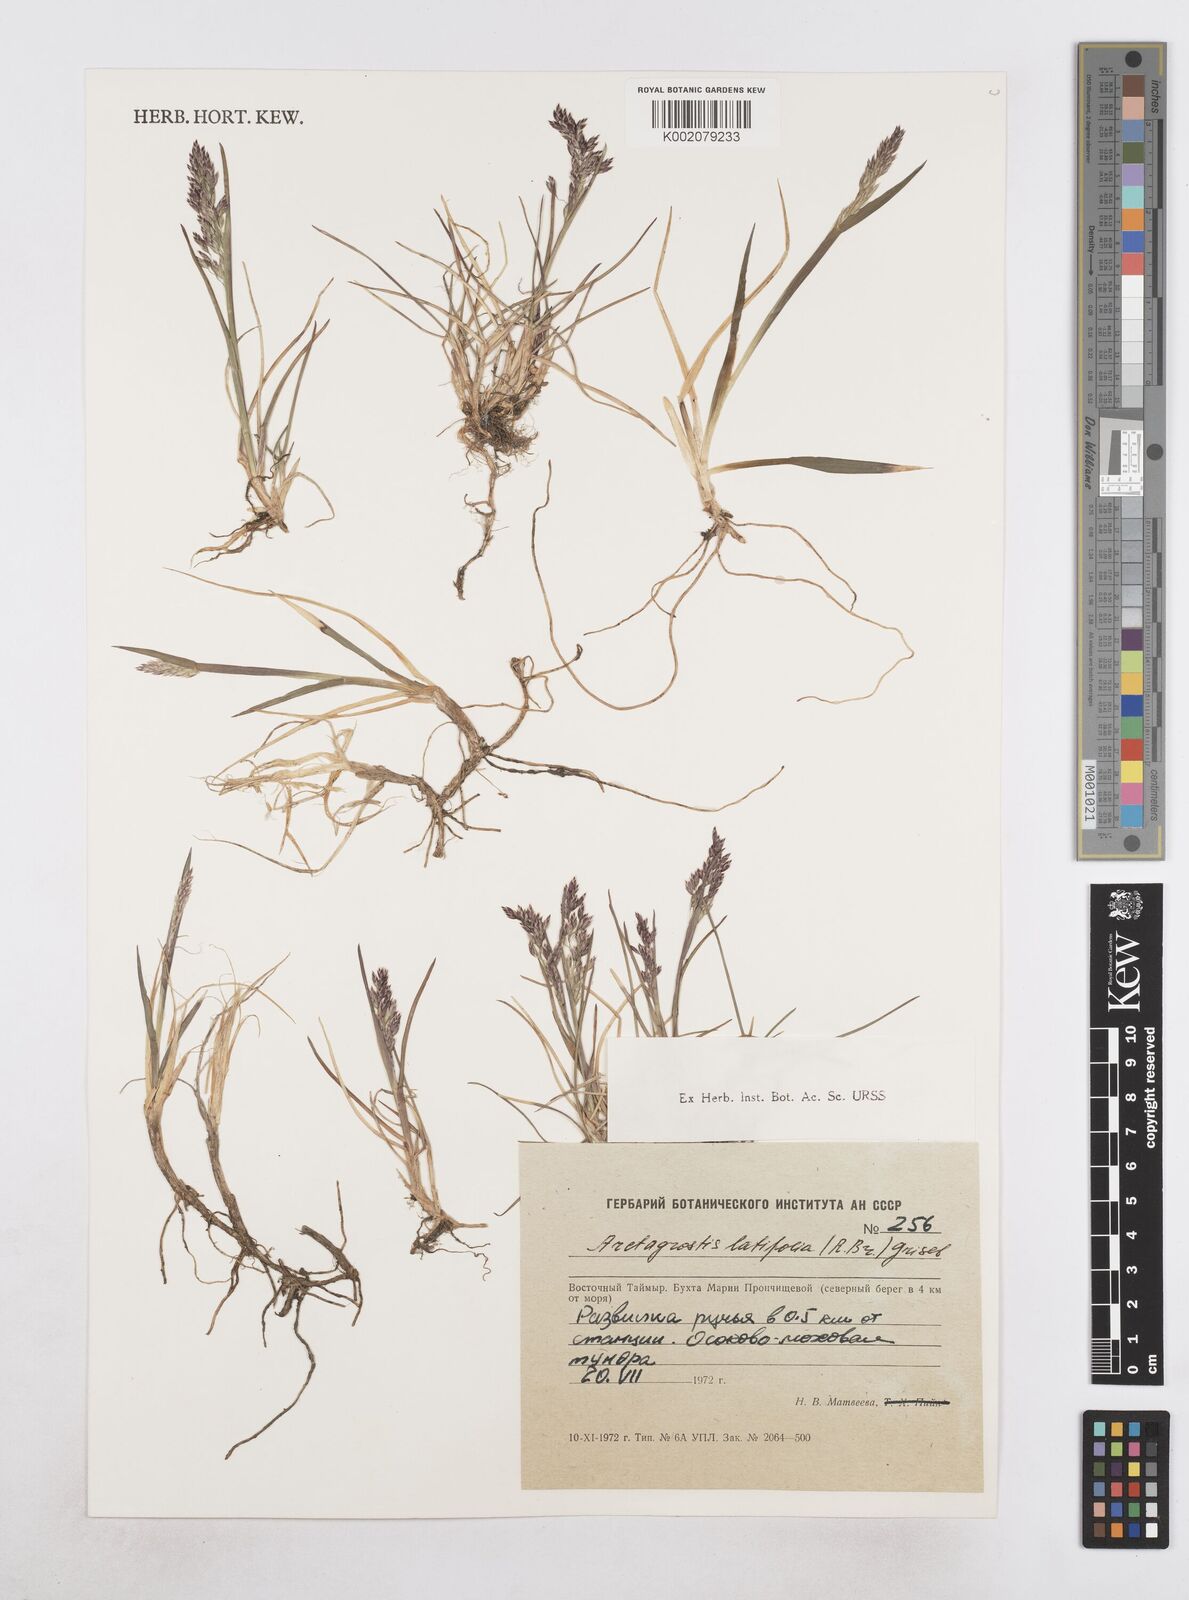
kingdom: Plantae
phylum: Tracheophyta
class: Liliopsida
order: Poales
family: Poaceae
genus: Arctagrostis
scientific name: Arctagrostis latifolia
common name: Arctic grass
